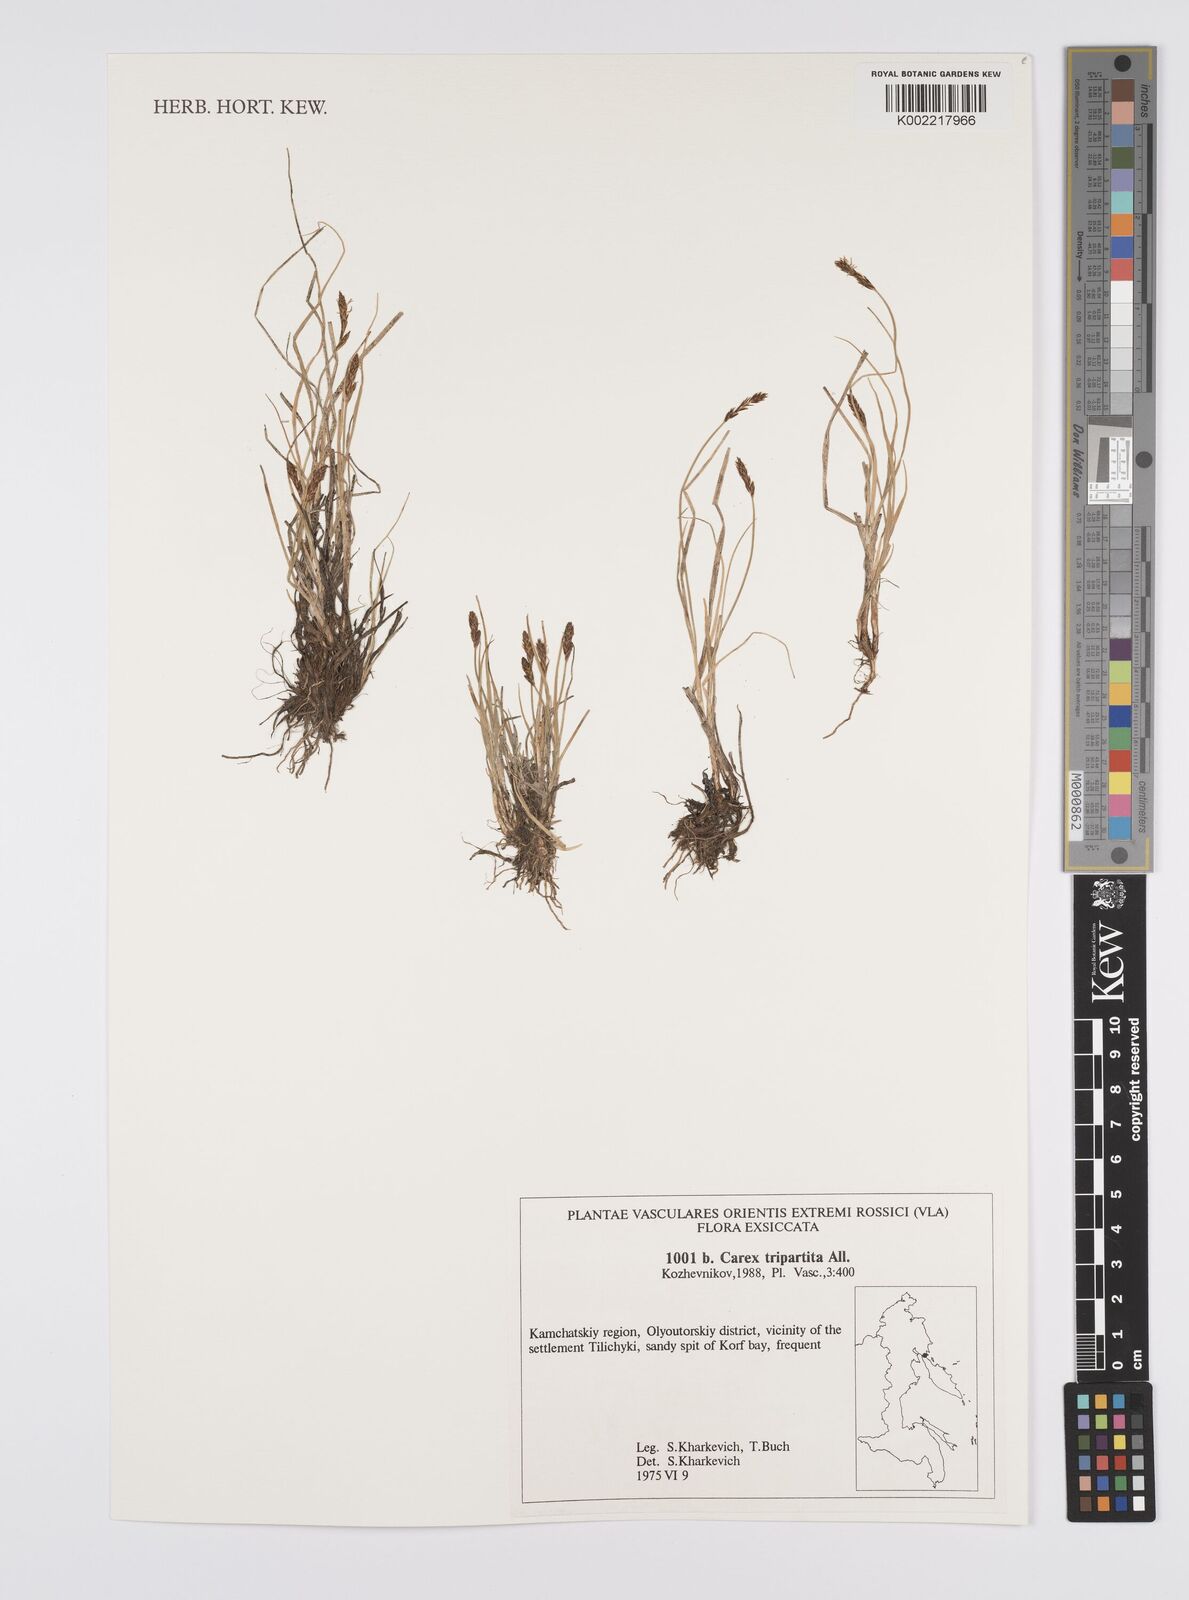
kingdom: Plantae
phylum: Tracheophyta
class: Liliopsida
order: Poales
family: Cyperaceae
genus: Carex
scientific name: Carex curvula
